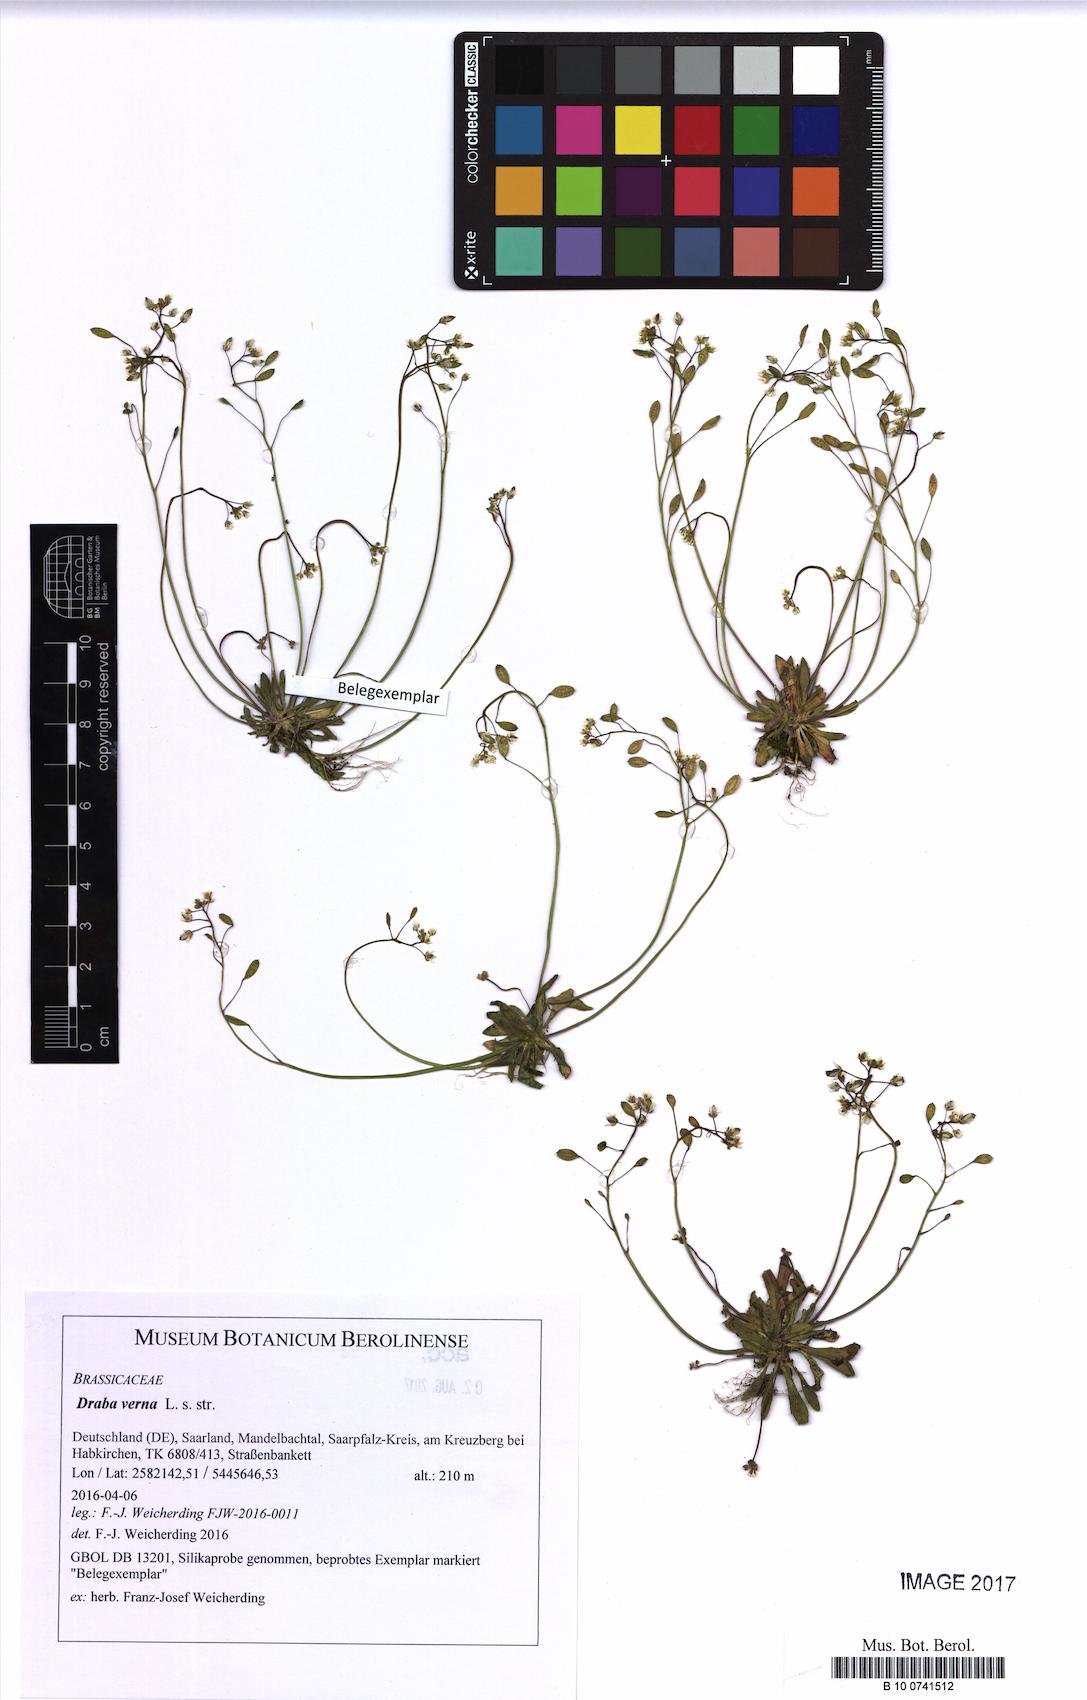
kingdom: Plantae
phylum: Tracheophyta
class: Magnoliopsida
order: Brassicales
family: Brassicaceae
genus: Draba
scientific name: Draba verna
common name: Spring draba
